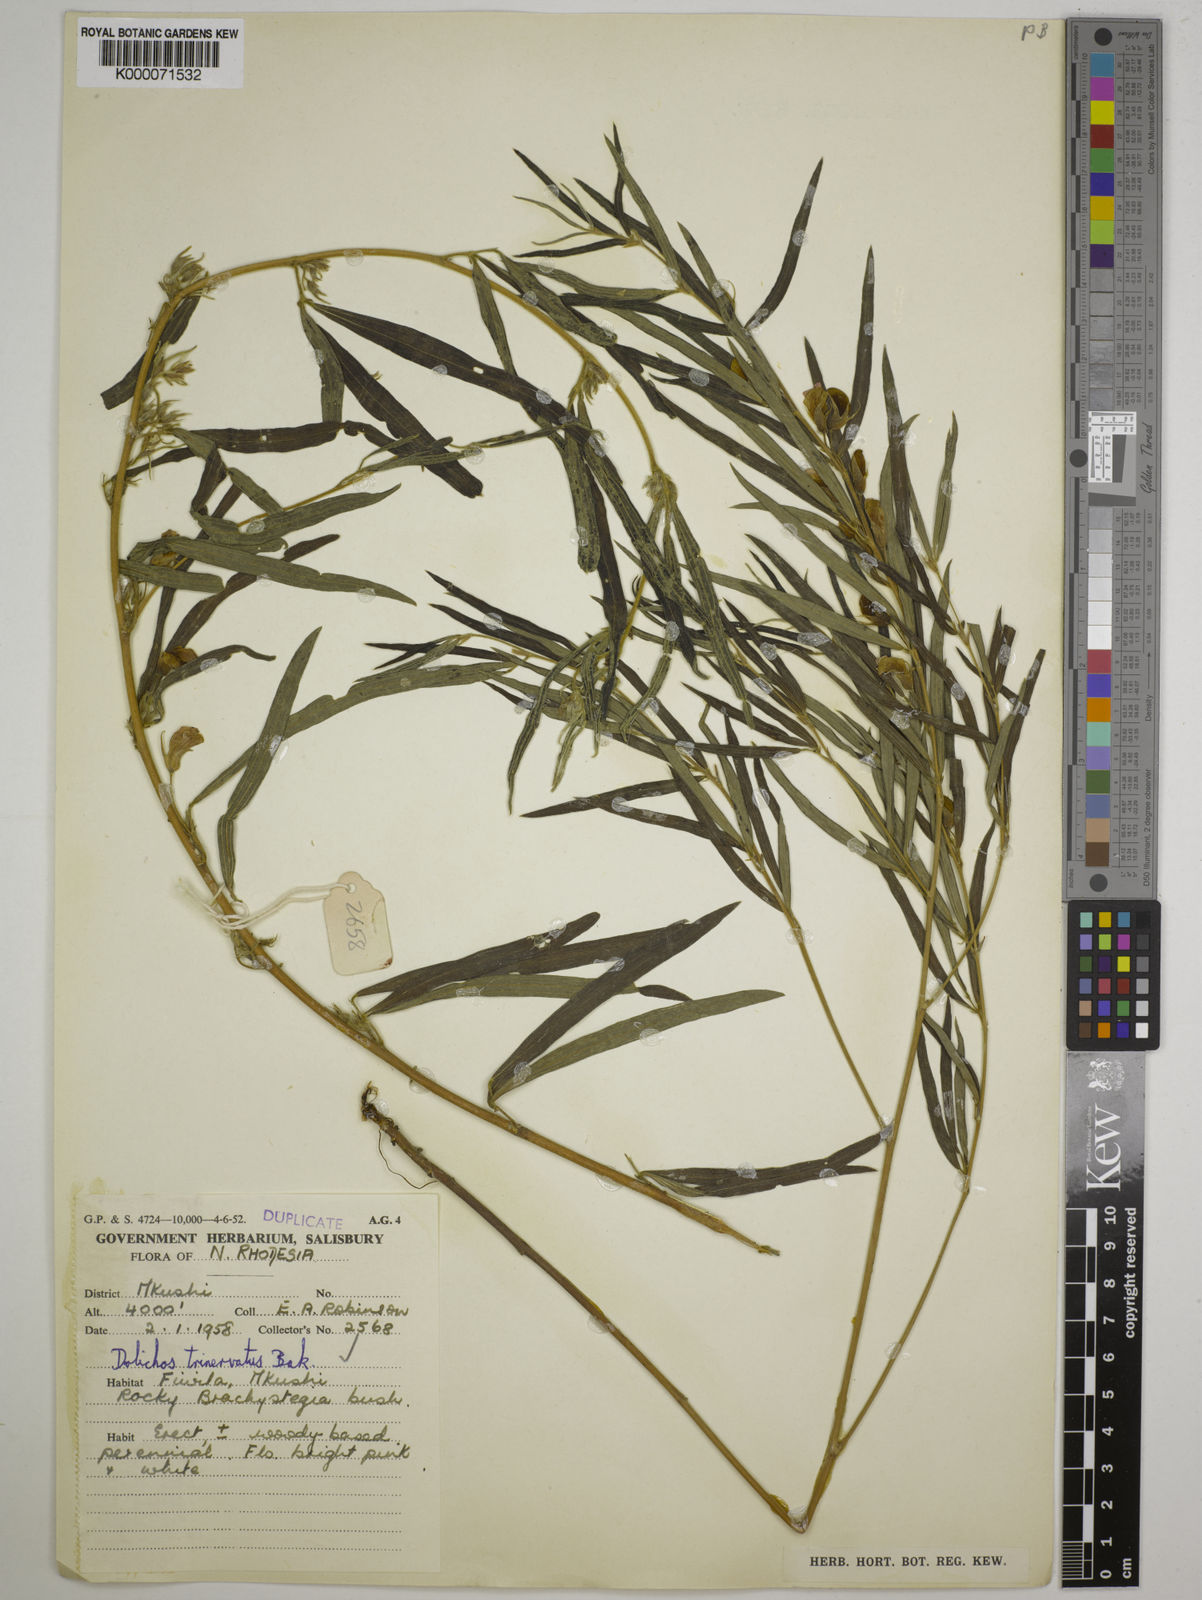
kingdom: Plantae
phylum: Tracheophyta
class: Magnoliopsida
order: Fabales
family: Fabaceae
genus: Dolichos
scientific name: Dolichos trinervatus
